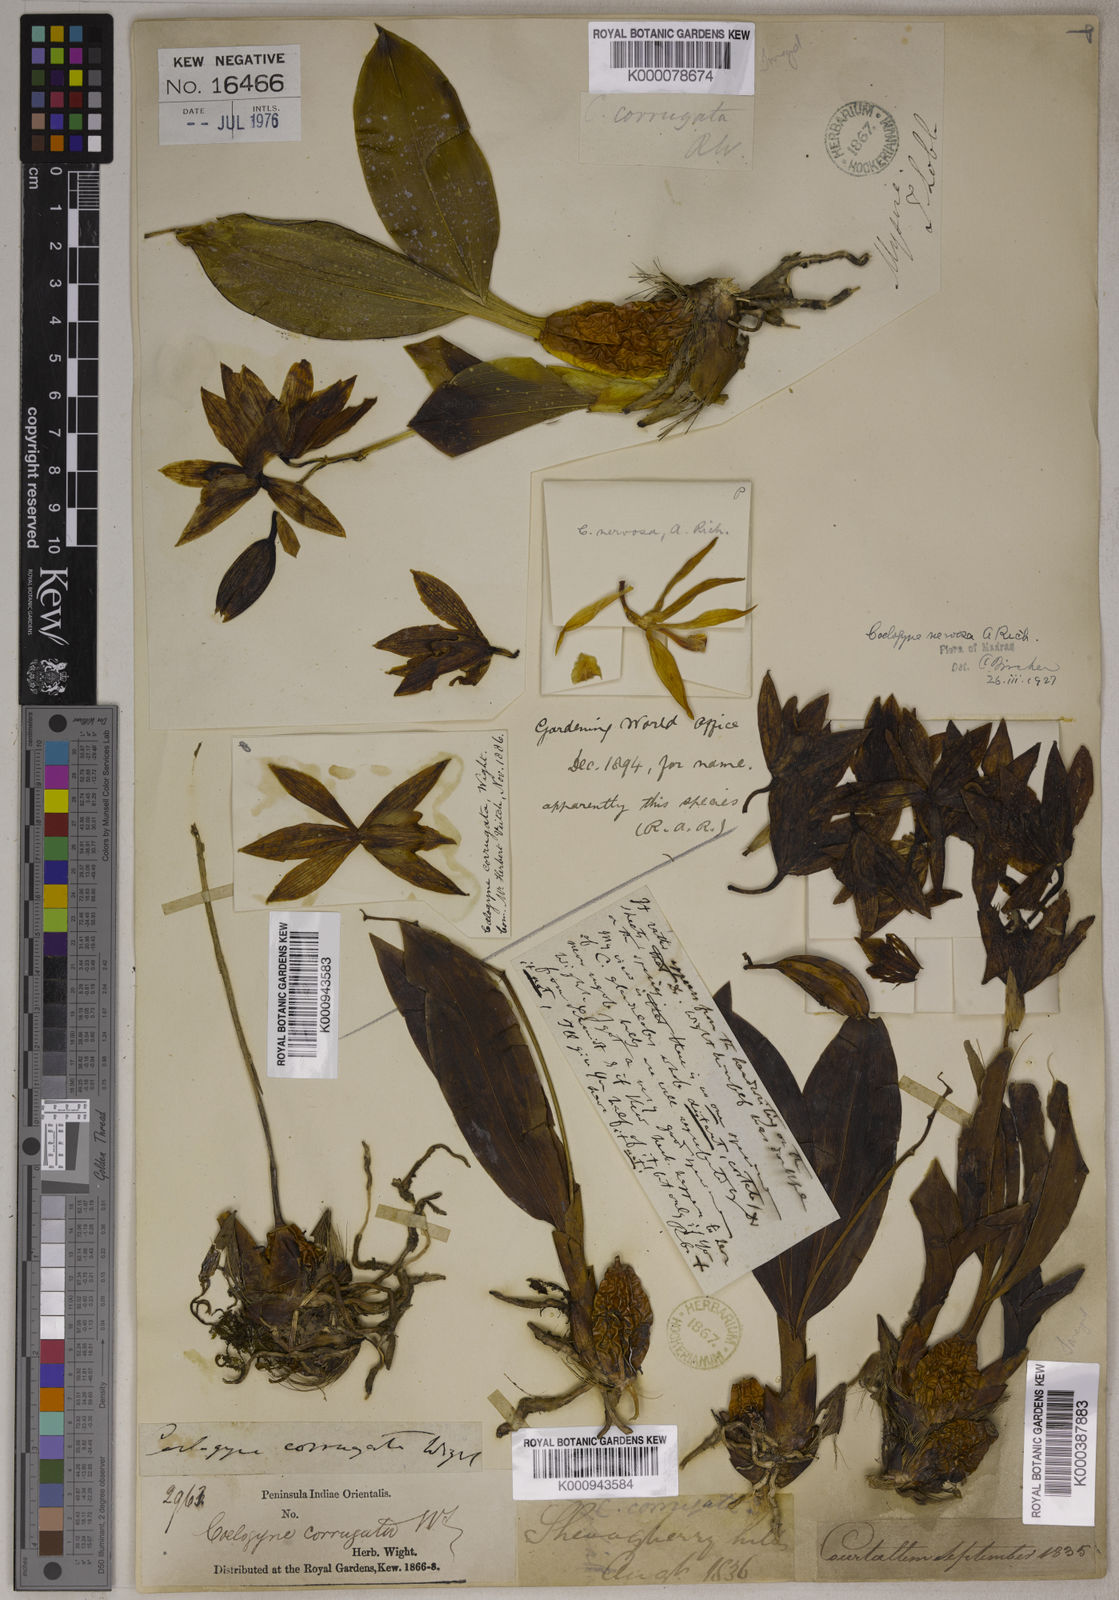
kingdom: Plantae
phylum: Tracheophyta
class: Liliopsida
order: Asparagales
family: Orchidaceae
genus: Coelogyne
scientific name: Coelogyne nervosa
